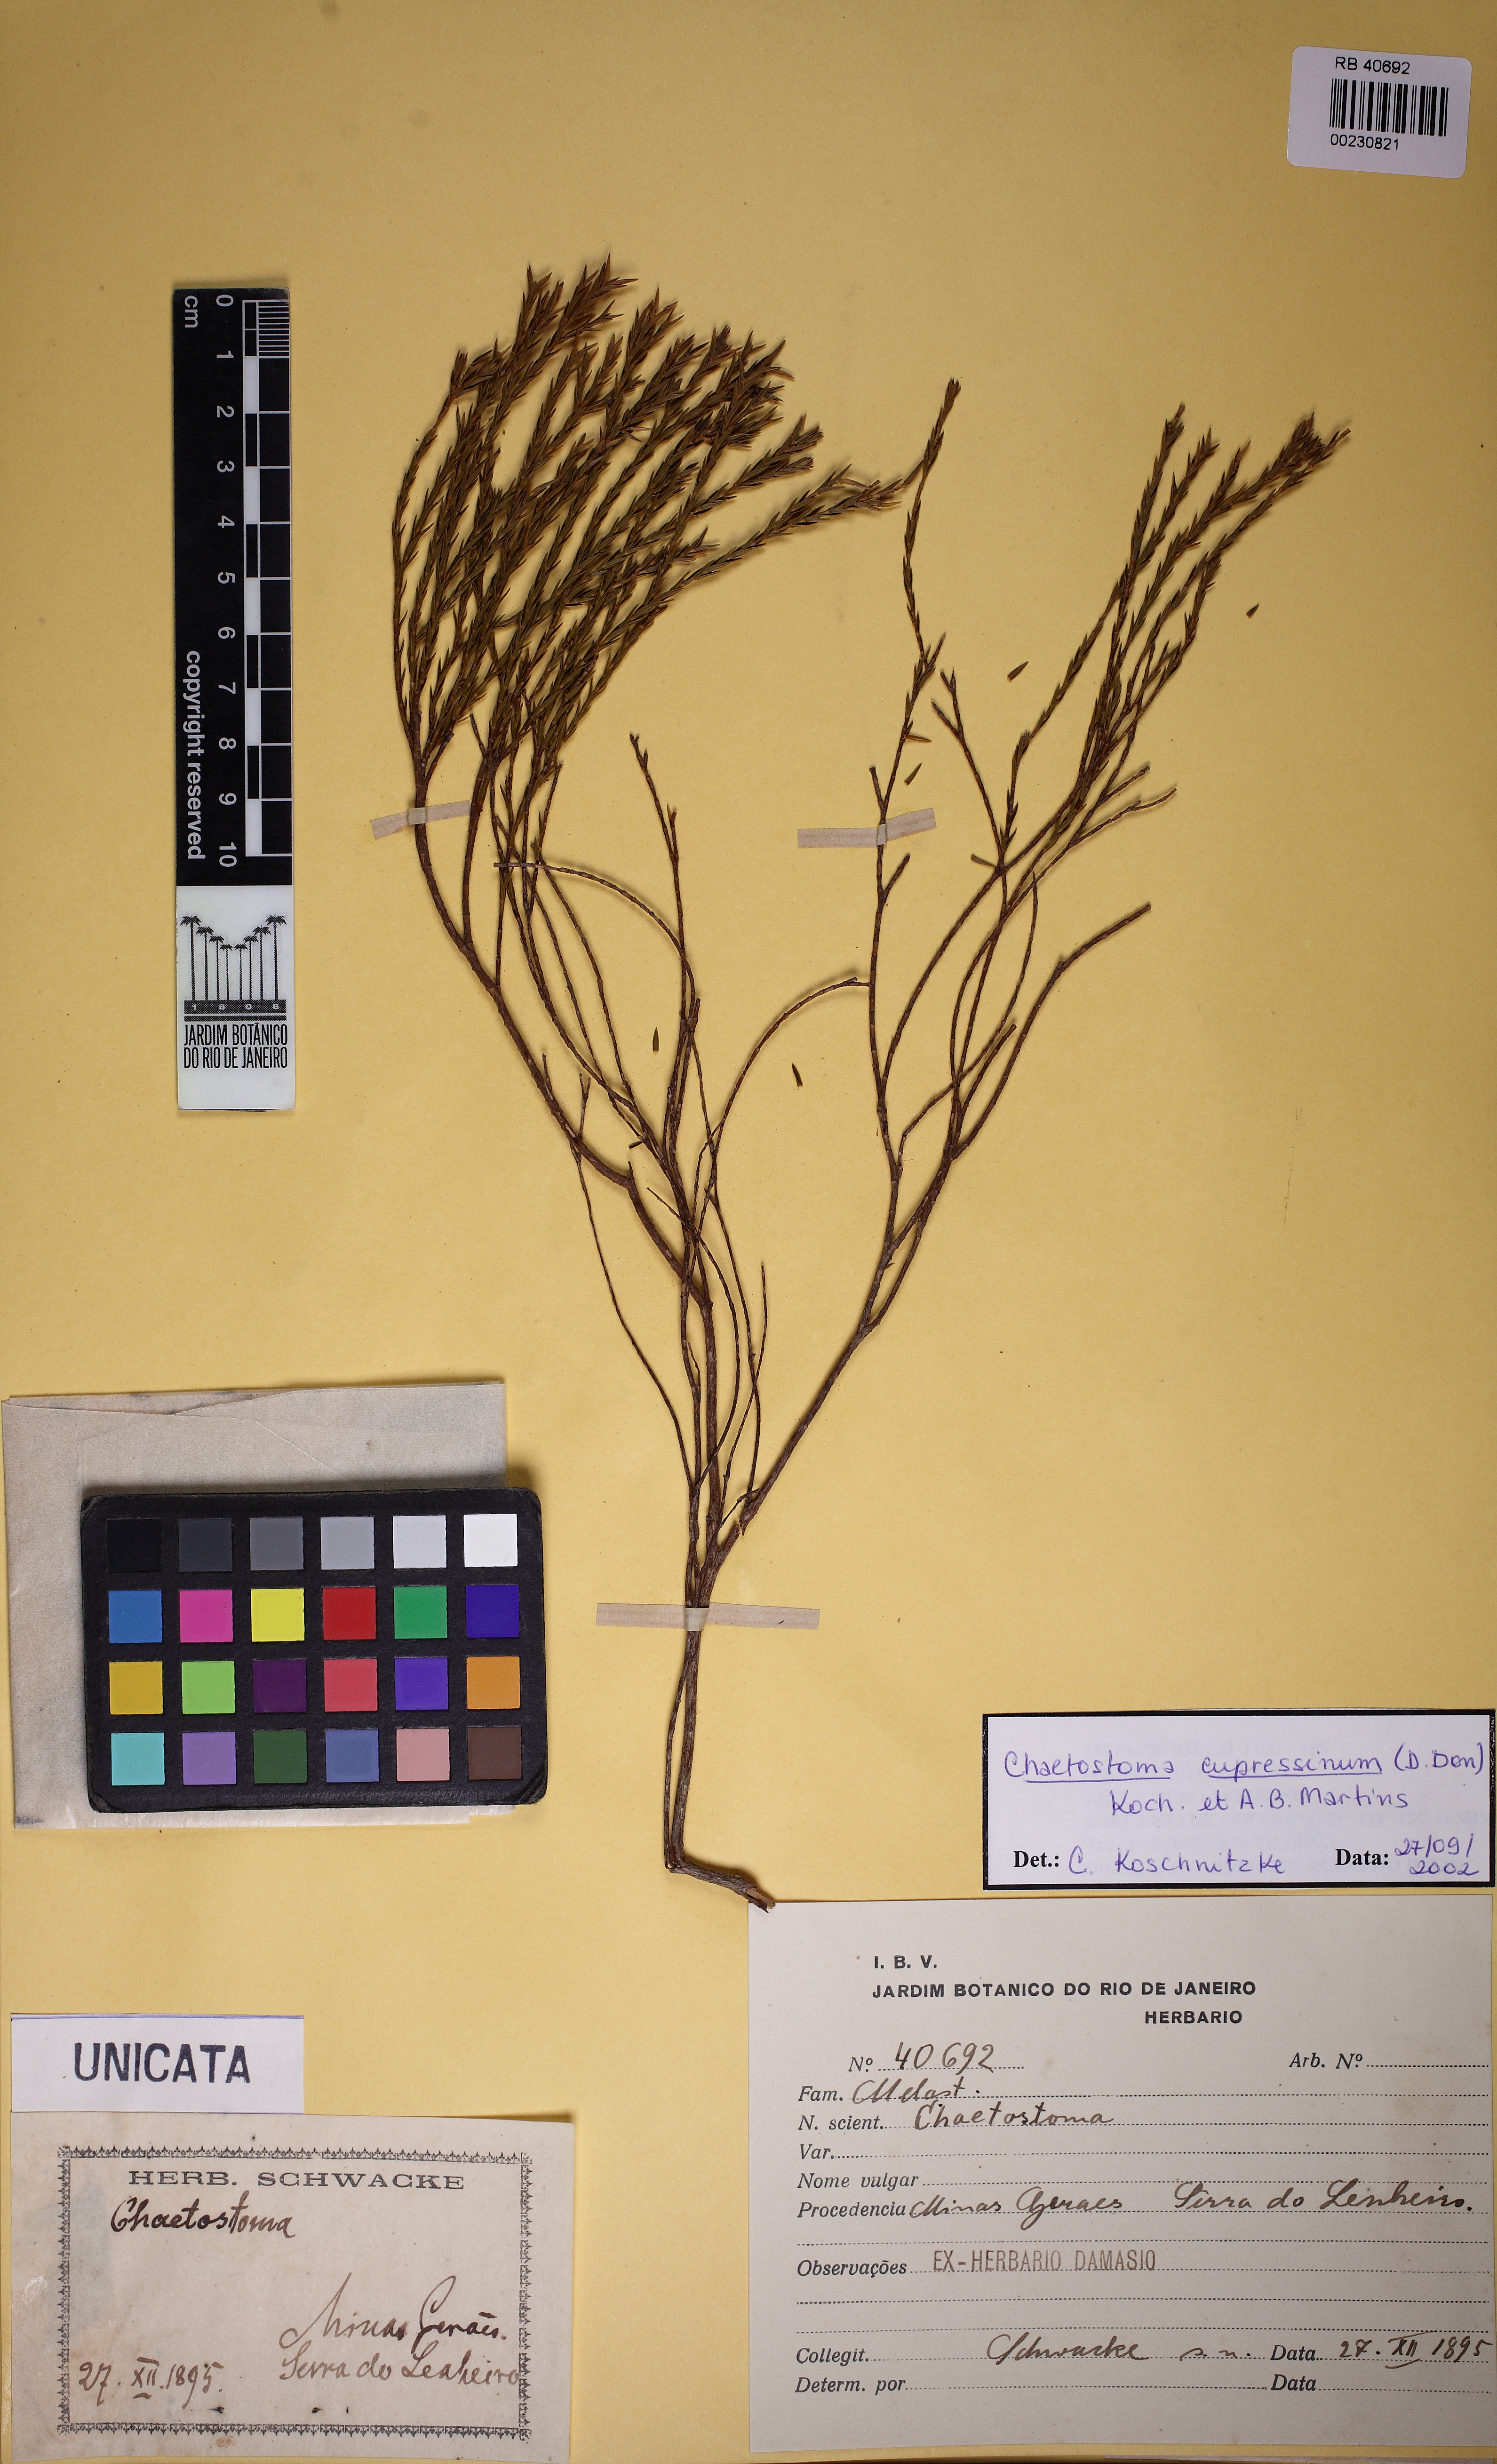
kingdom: Plantae
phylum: Tracheophyta
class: Magnoliopsida
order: Myrtales
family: Melastomataceae
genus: Microlicia
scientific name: Microlicia cupressina
